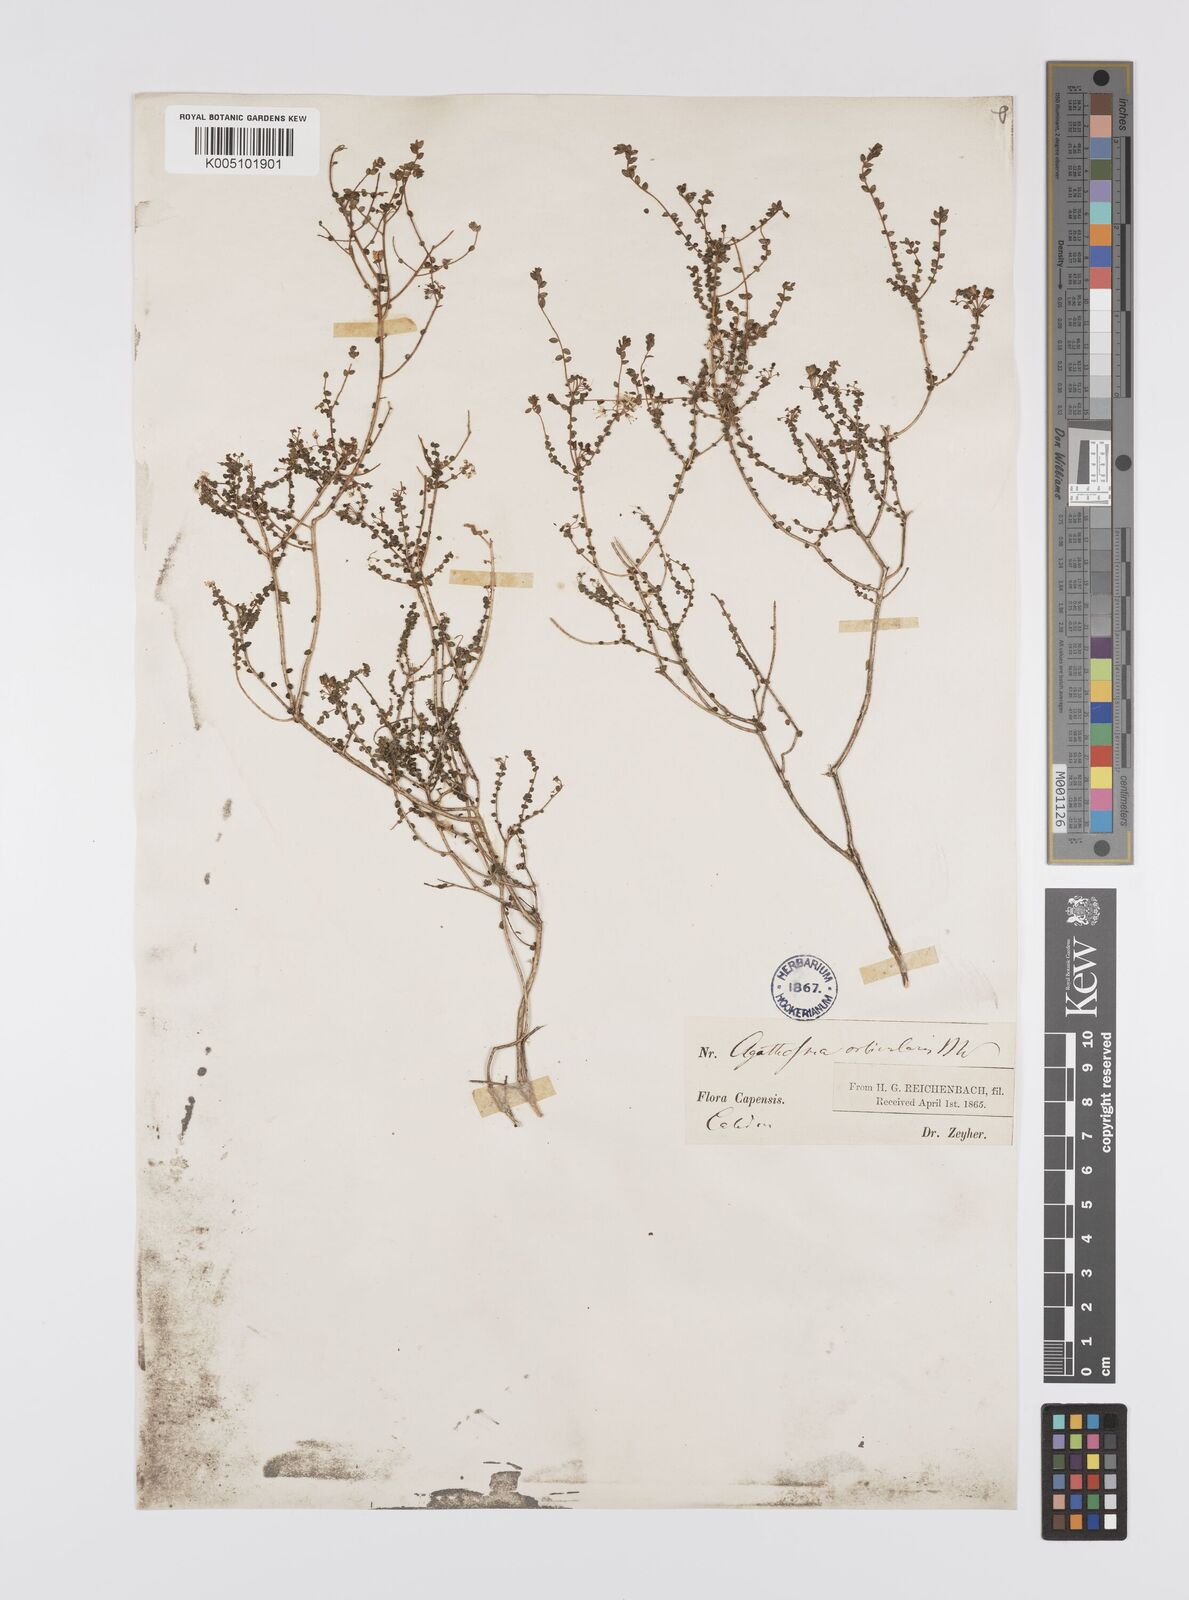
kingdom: Plantae
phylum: Tracheophyta
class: Magnoliopsida
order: Sapindales
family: Rutaceae
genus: Agathosma
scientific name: Agathosma orbicularis
